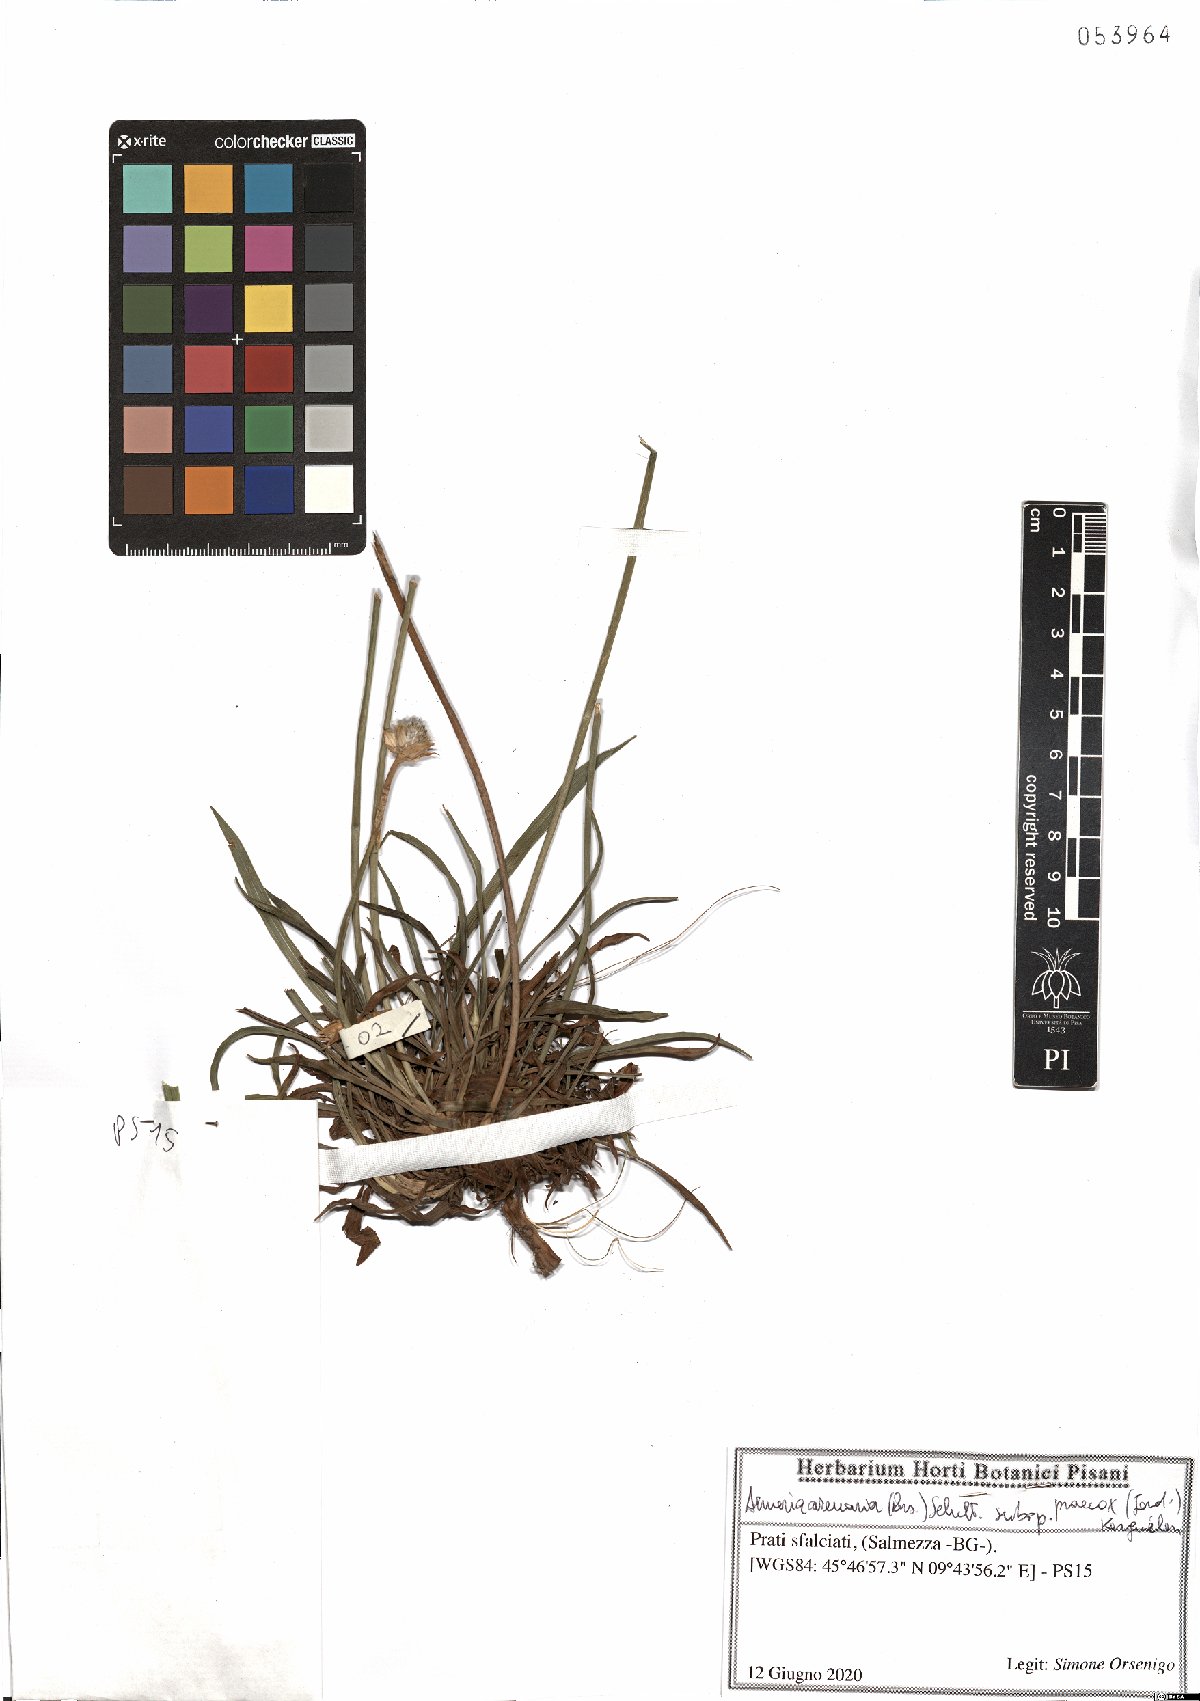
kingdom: Plantae
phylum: Tracheophyta
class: Magnoliopsida
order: Caryophyllales
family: Plumbaginaceae
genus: Armeria
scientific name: Armeria arenaria
